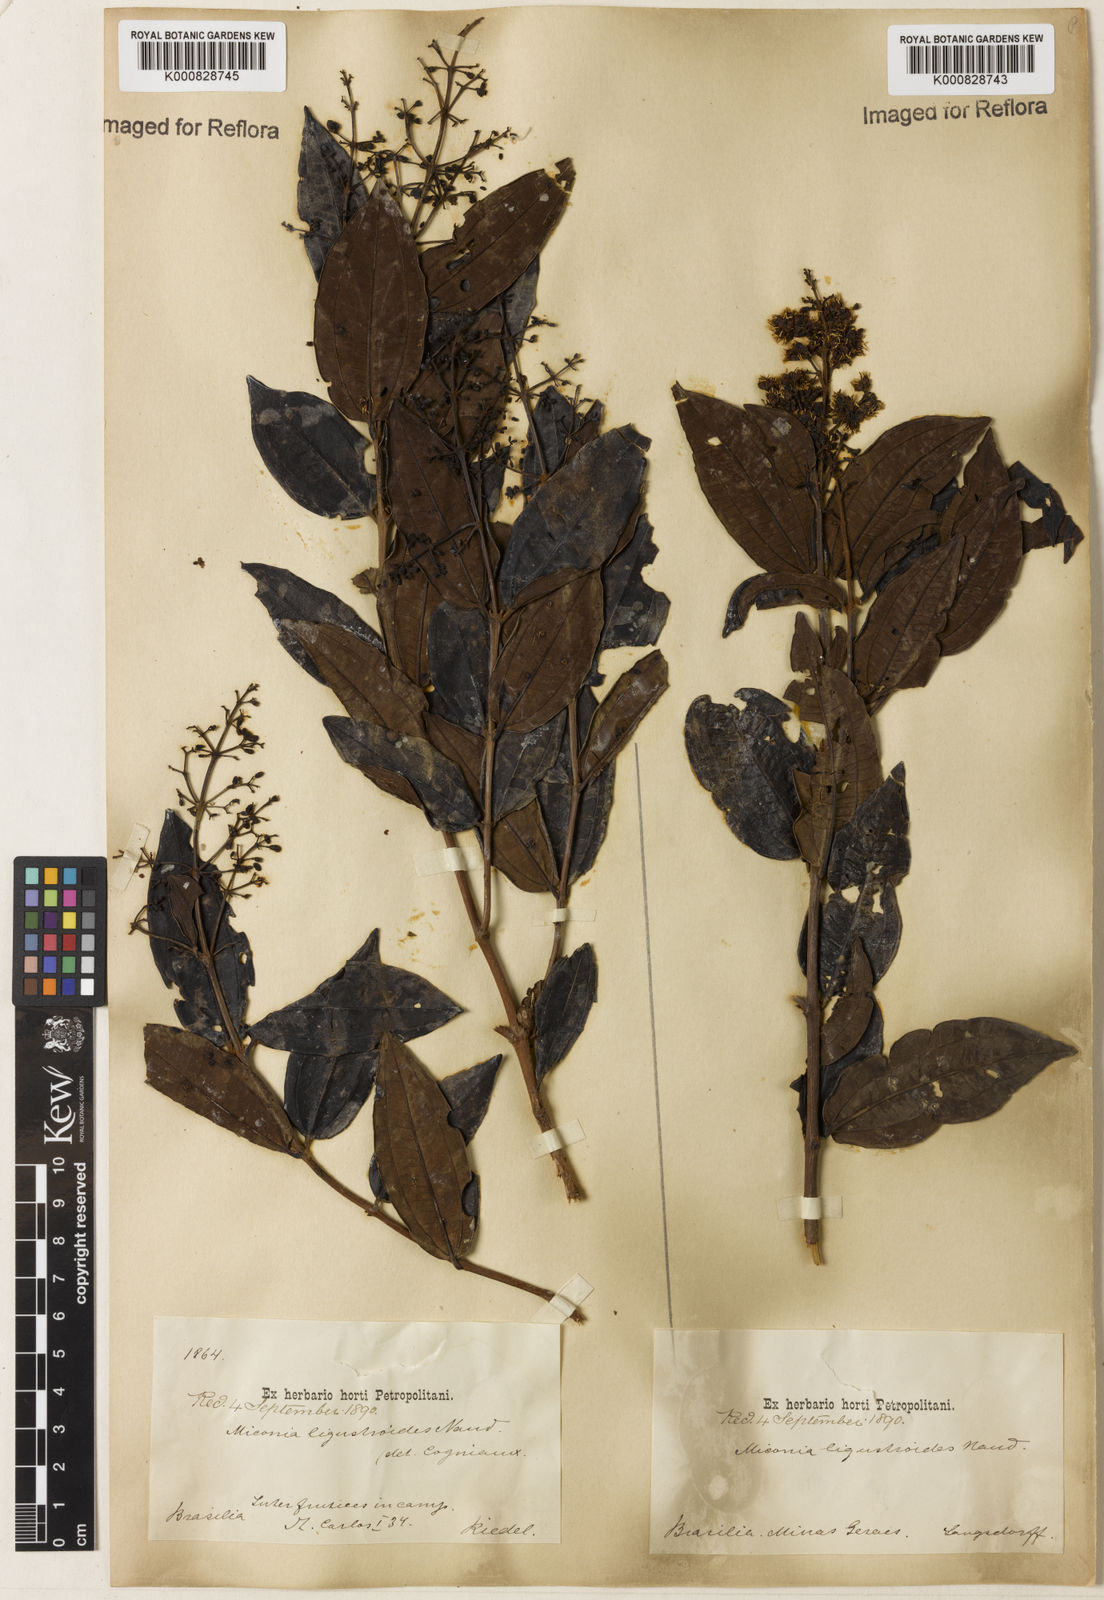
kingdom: Plantae
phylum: Tracheophyta
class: Magnoliopsida
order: Myrtales
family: Melastomataceae
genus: Miconia
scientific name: Miconia ligustroides
